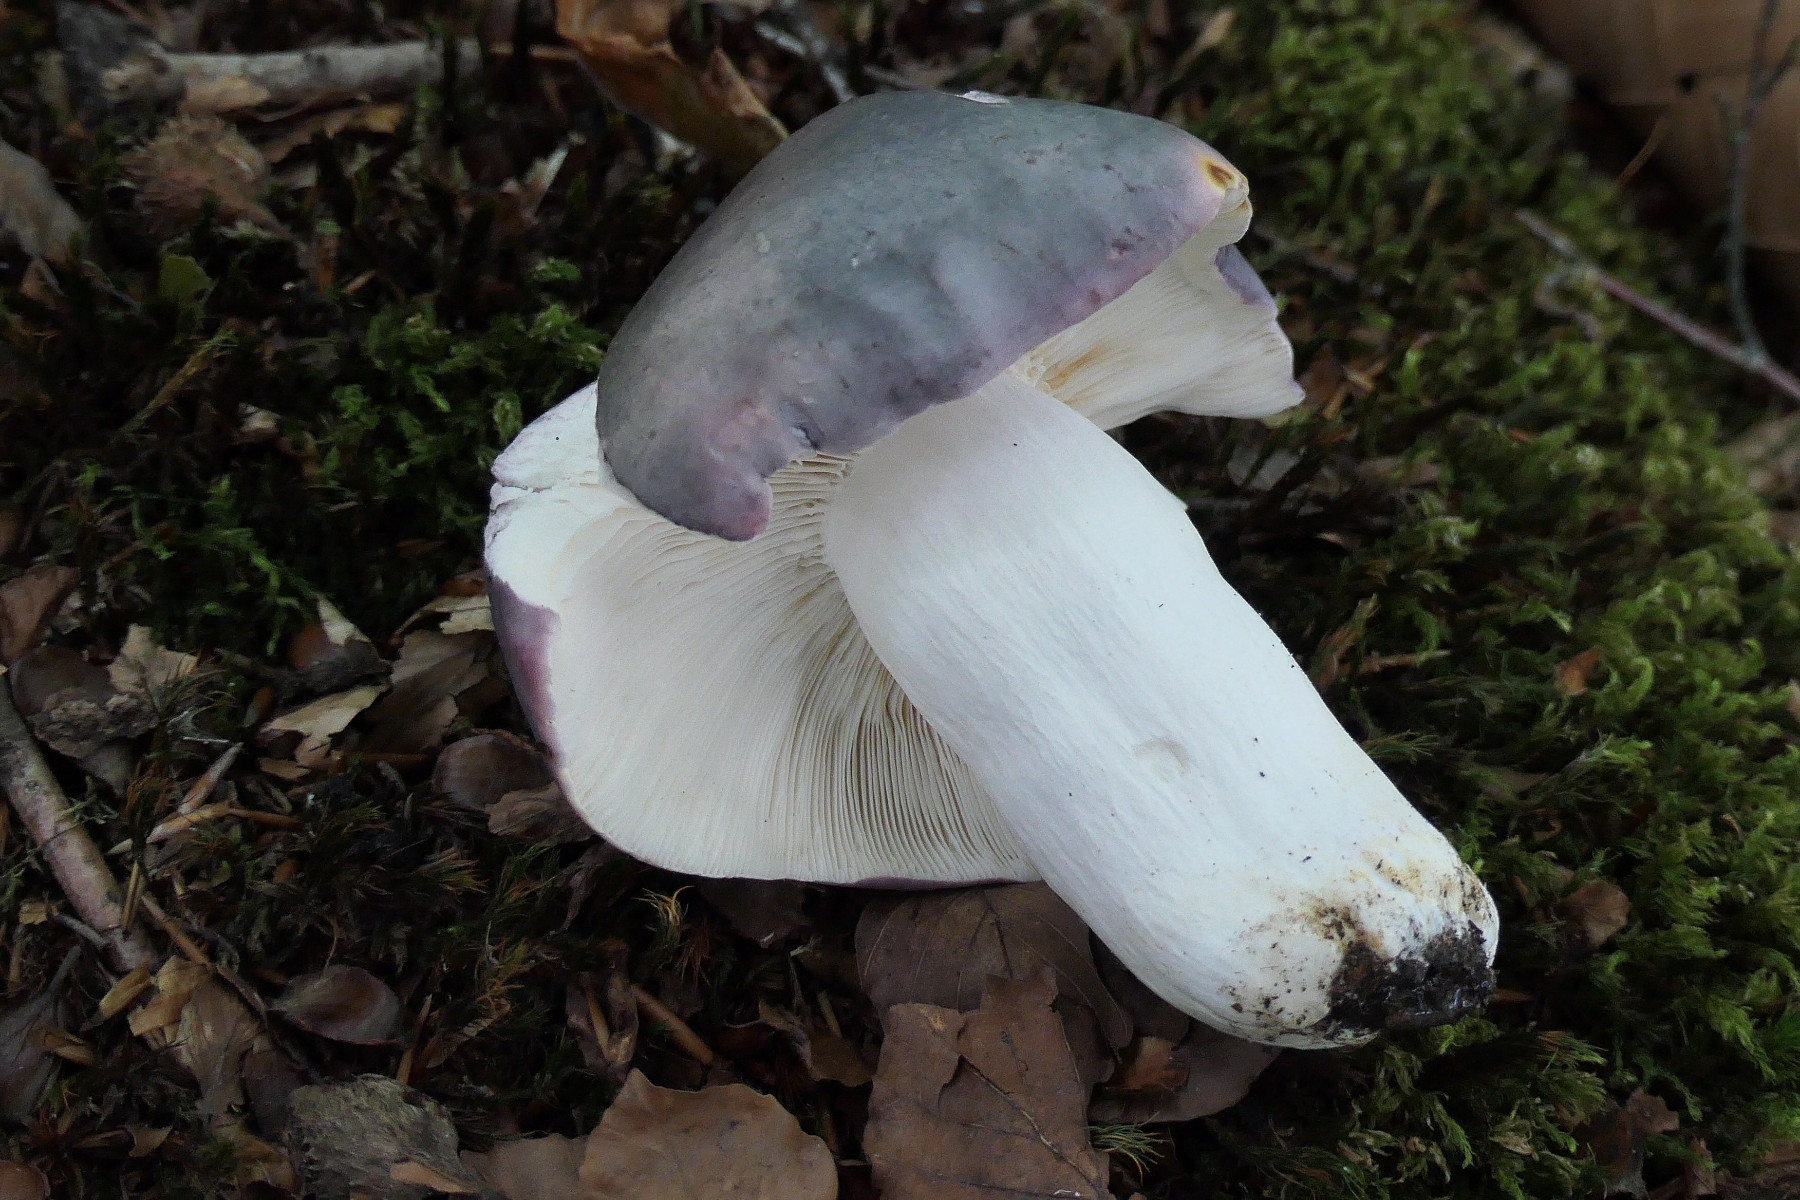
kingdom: Fungi
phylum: Basidiomycota
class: Agaricomycetes
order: Russulales
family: Russulaceae
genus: Russula
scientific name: Russula cyanoxantha
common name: broget skørhat
